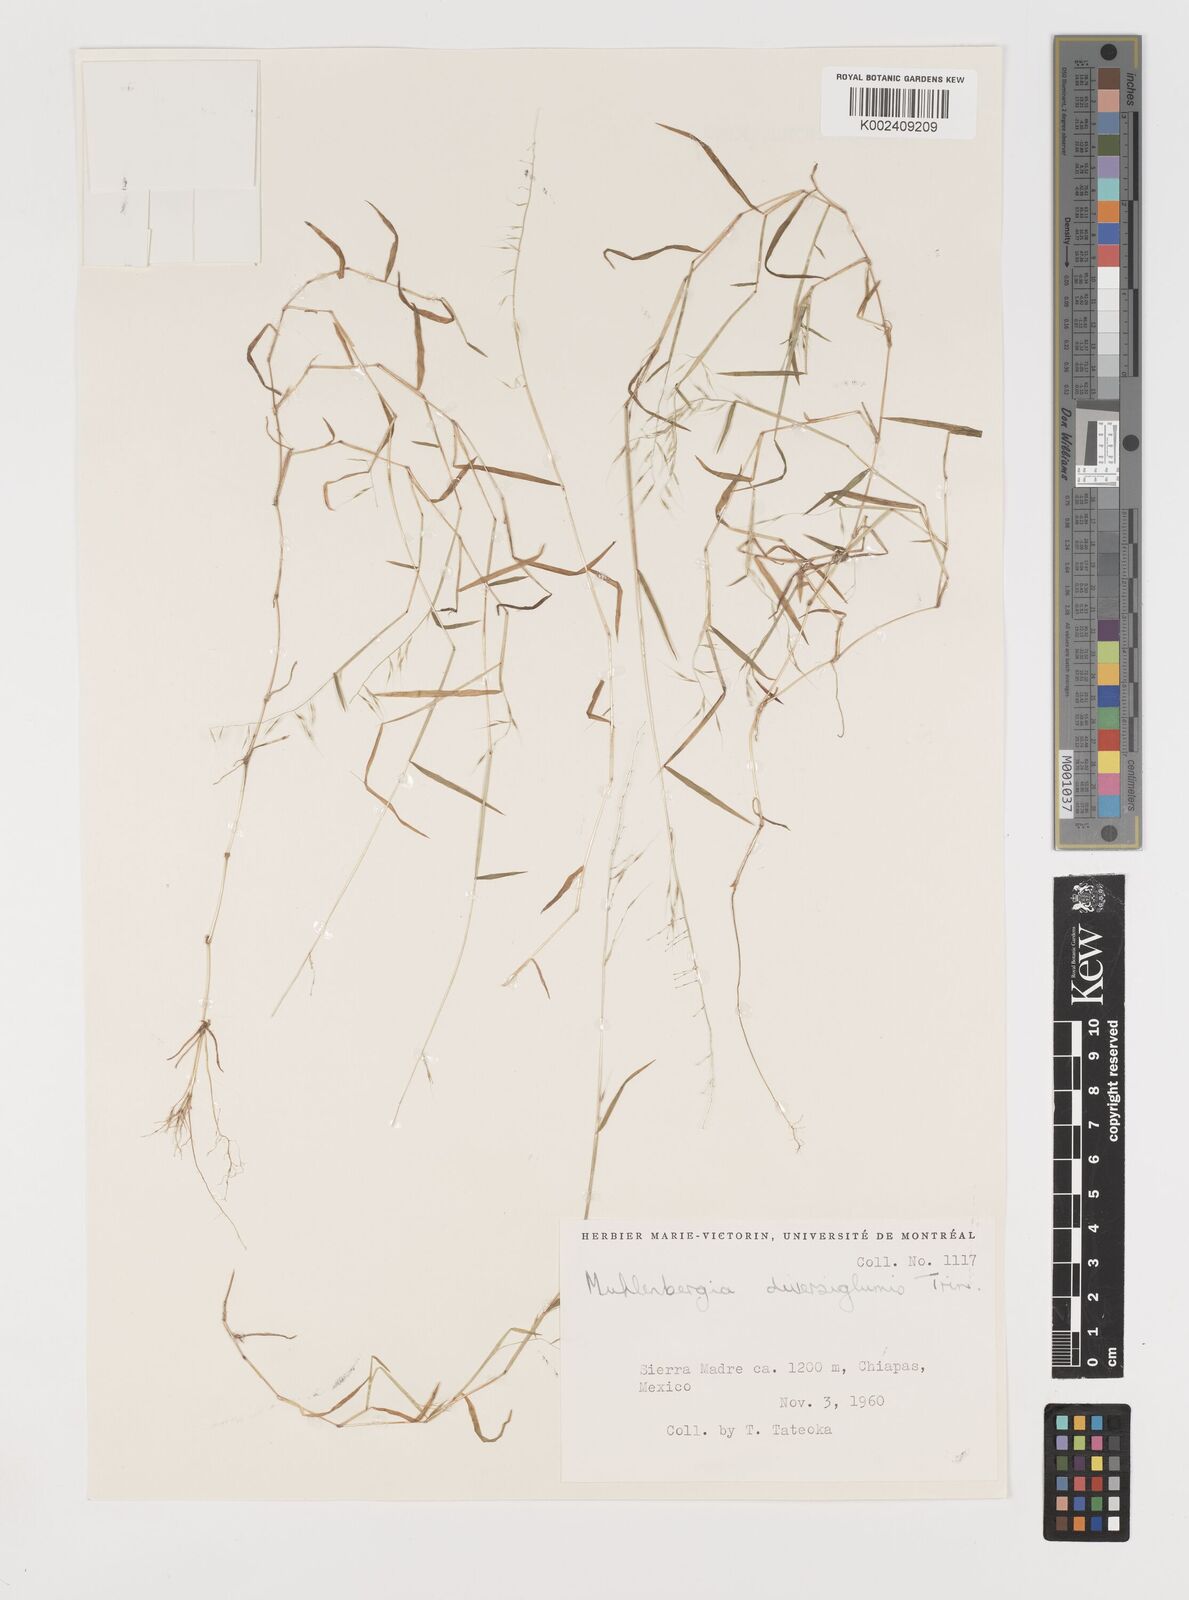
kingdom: Plantae
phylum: Tracheophyta
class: Liliopsida
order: Poales
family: Poaceae
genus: Muhlenbergia
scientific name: Muhlenbergia diversiglumis
